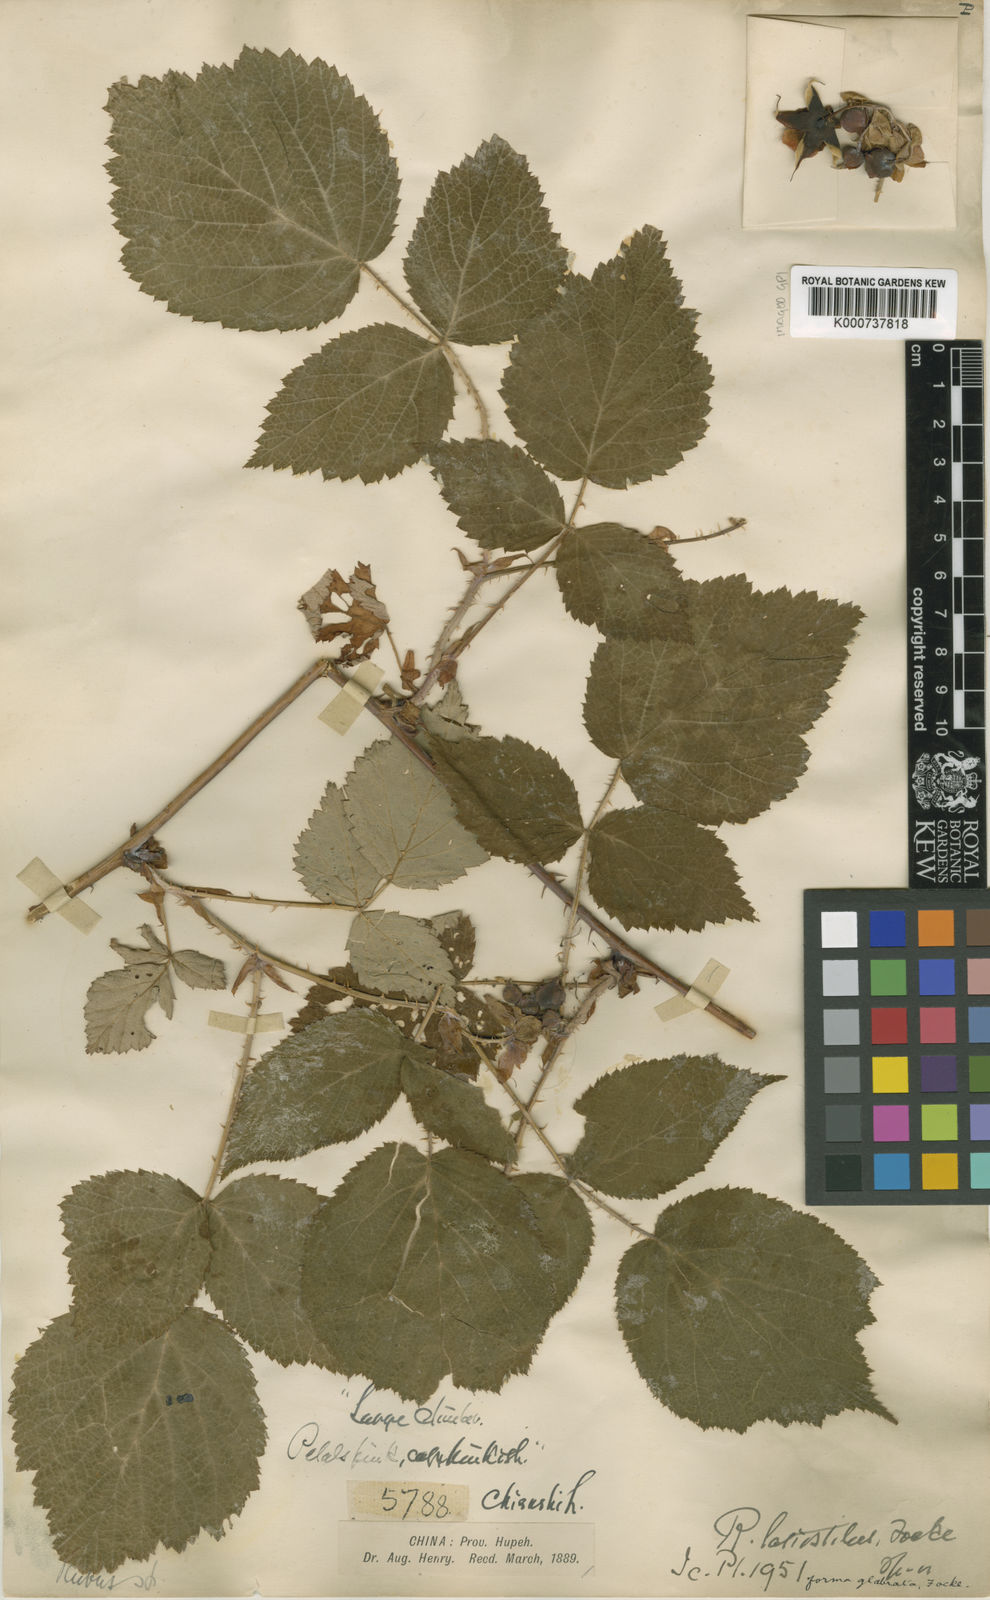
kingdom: Plantae
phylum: Tracheophyta
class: Magnoliopsida
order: Rosales
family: Rosaceae
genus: Rubus
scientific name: Rubus
